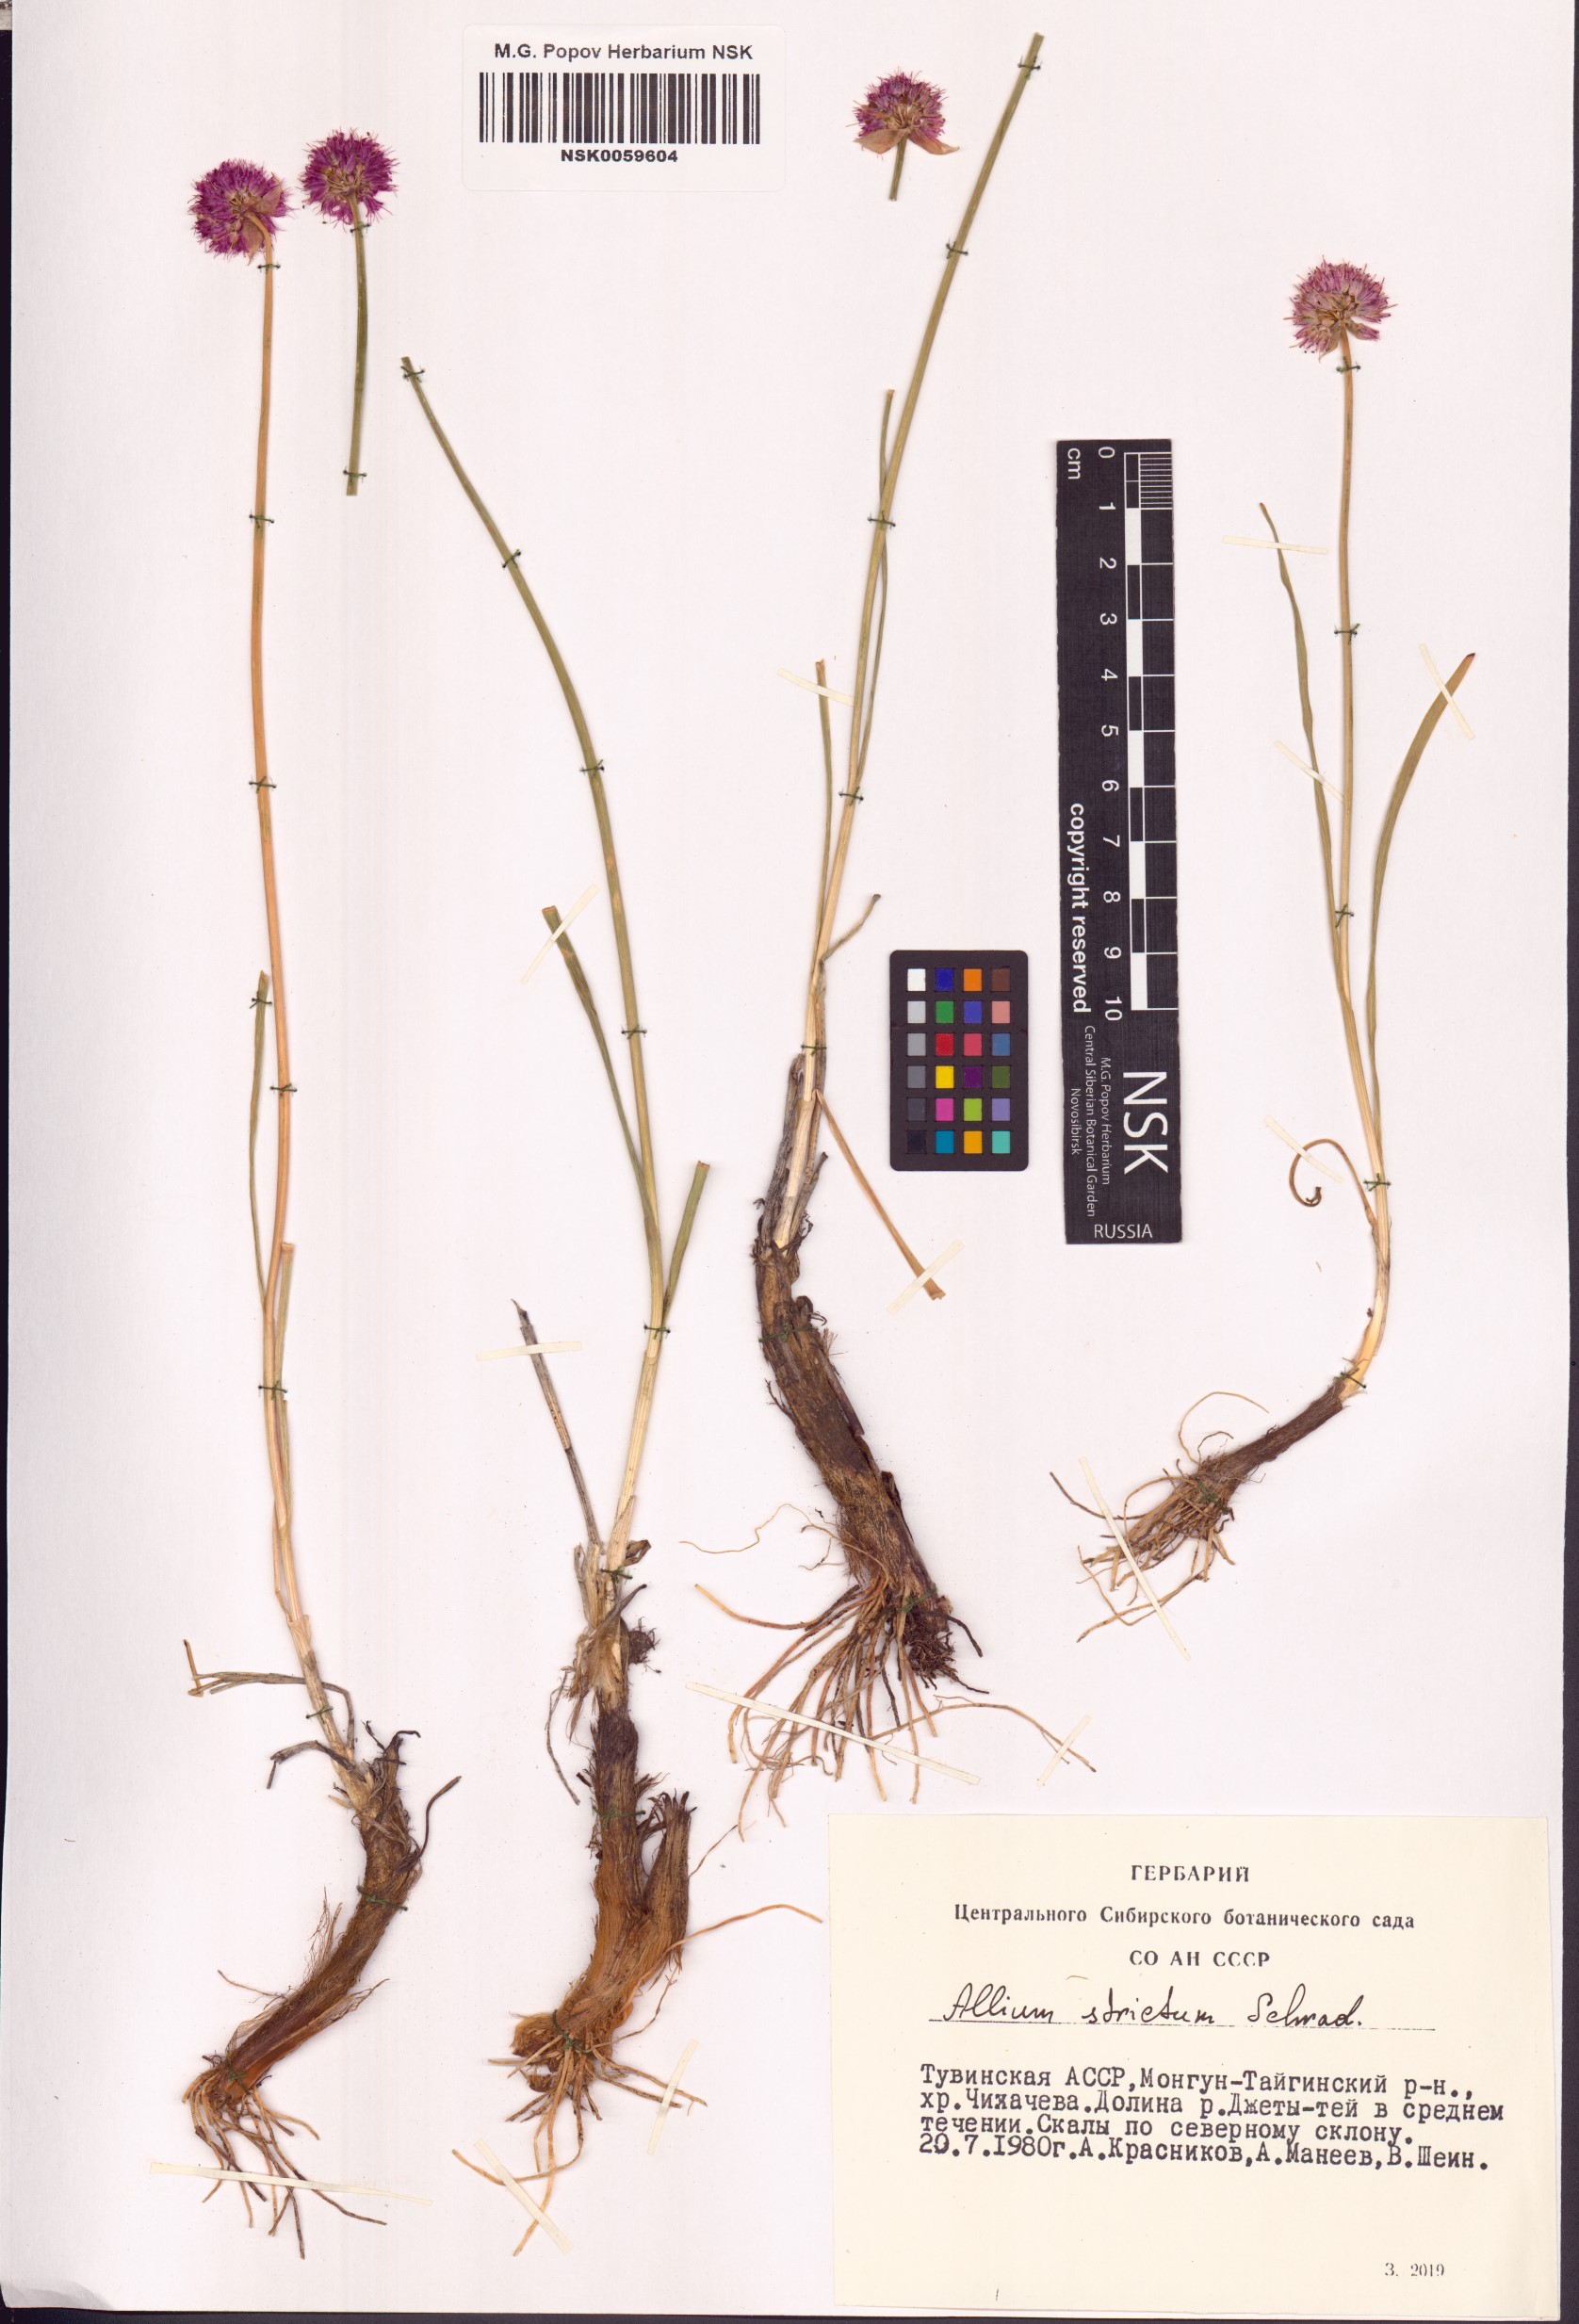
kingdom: Plantae
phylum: Tracheophyta
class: Liliopsida
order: Asparagales
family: Amaryllidaceae
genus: Allium
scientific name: Allium strictum
